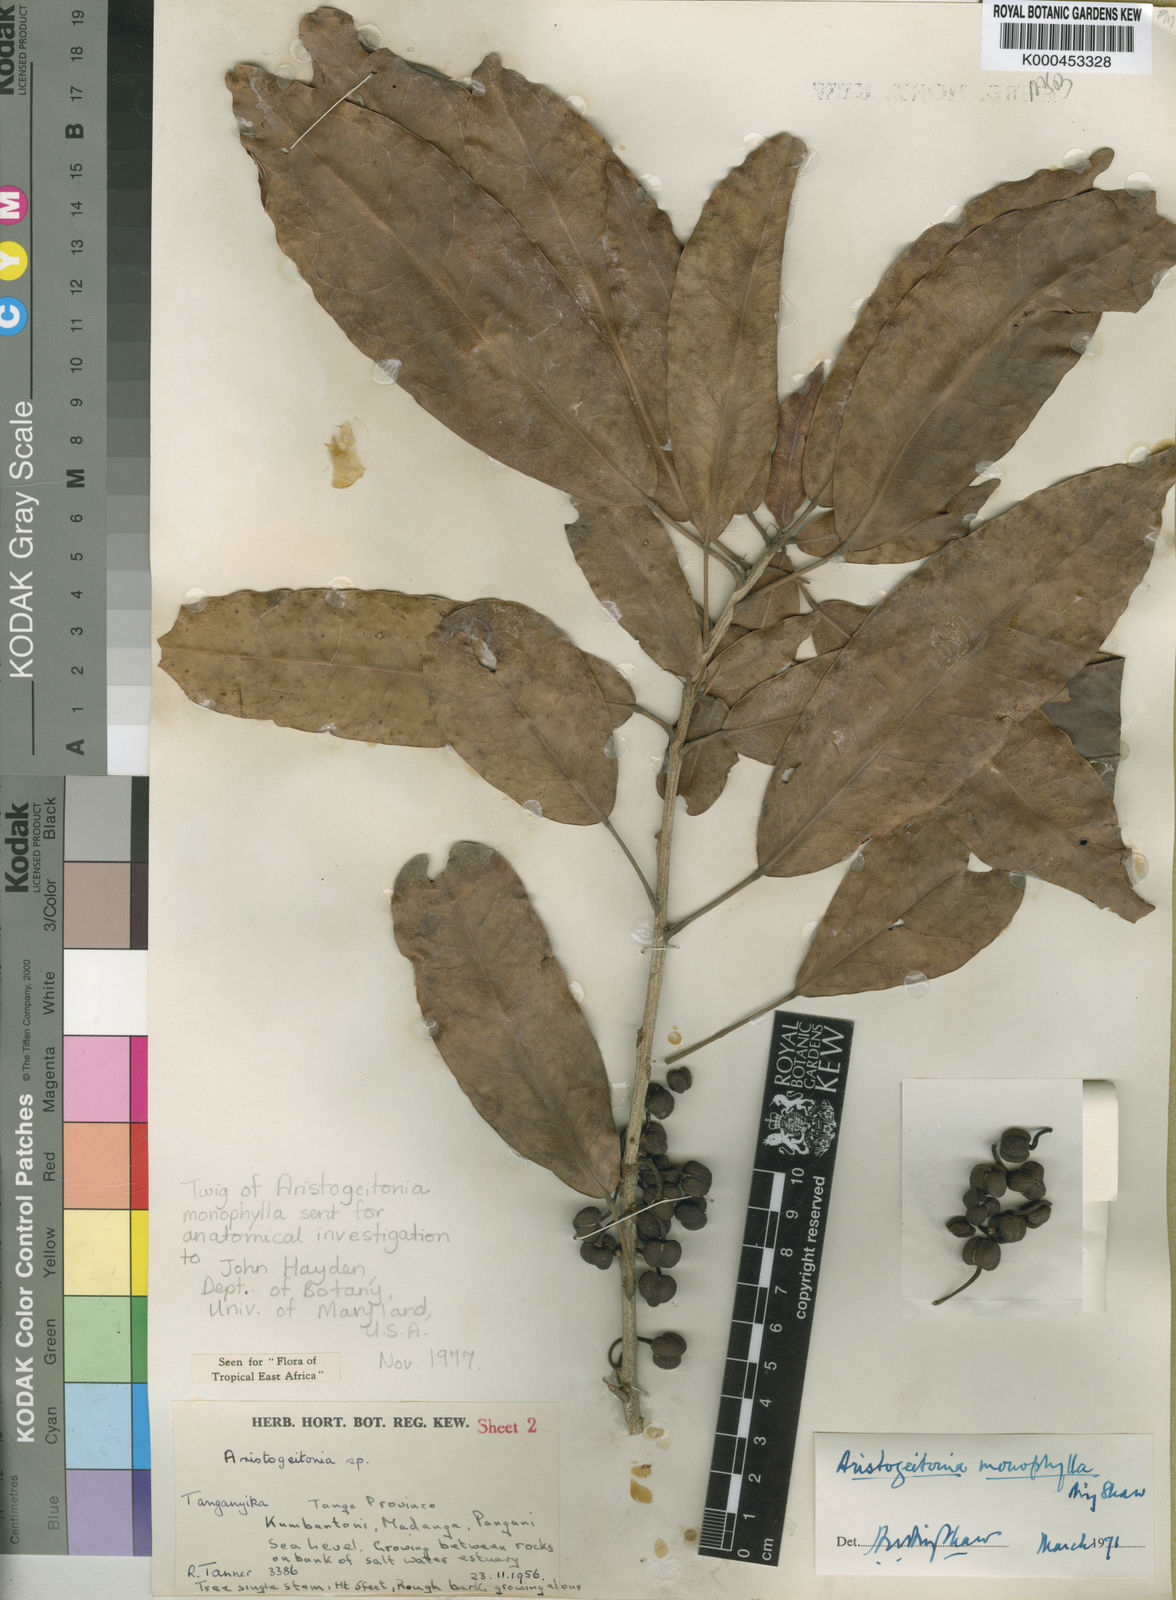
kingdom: Plantae
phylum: Tracheophyta
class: Magnoliopsida
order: Malpighiales
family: Picrodendraceae
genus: Aristogeitonia
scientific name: Aristogeitonia monophylla
